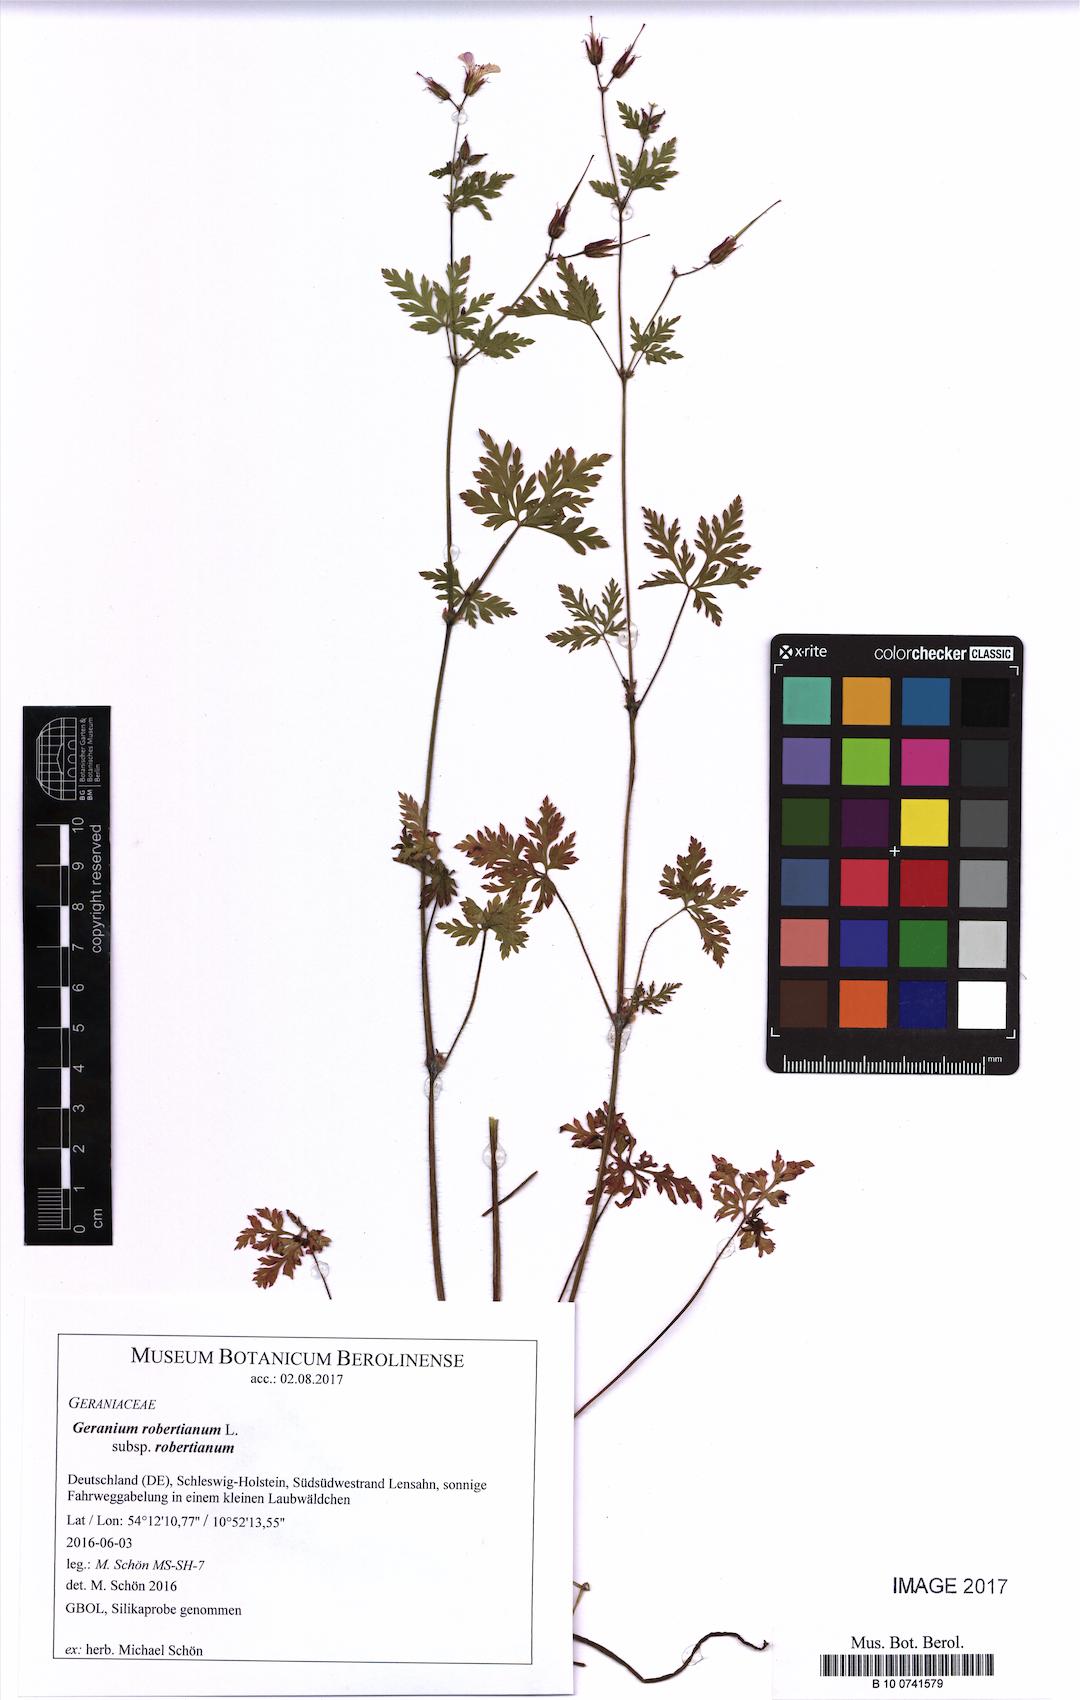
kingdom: Plantae
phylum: Tracheophyta
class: Magnoliopsida
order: Geraniales
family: Geraniaceae
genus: Geranium
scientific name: Geranium robertianum
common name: Herb-robert
